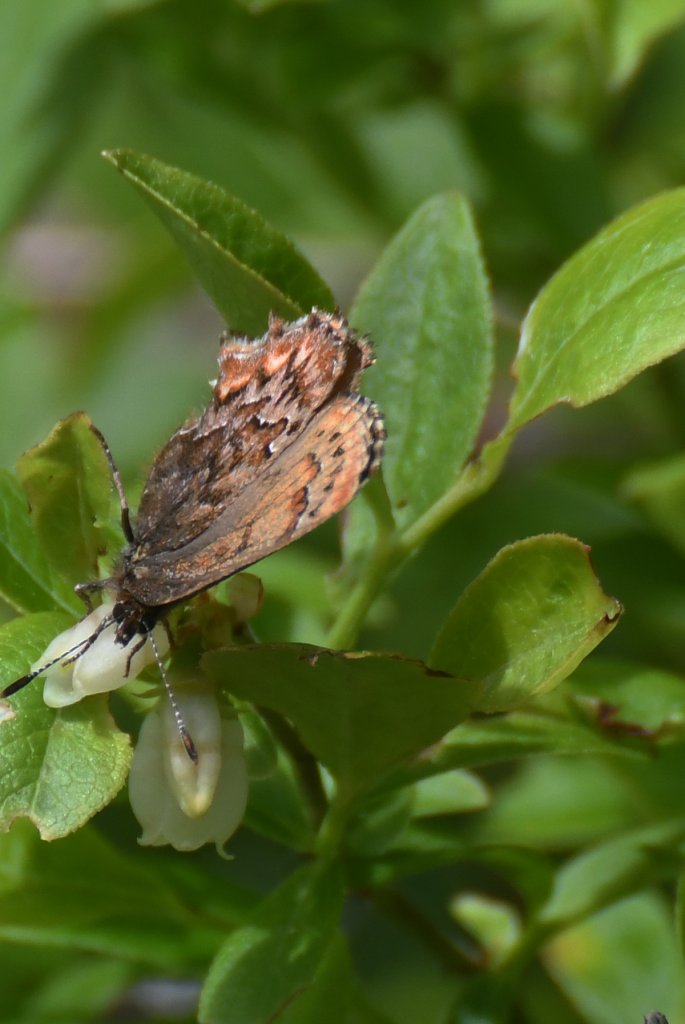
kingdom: Animalia
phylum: Arthropoda
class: Insecta
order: Lepidoptera
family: Lycaenidae
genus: Incisalia
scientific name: Incisalia eryphon
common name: Western Pine Elfin
